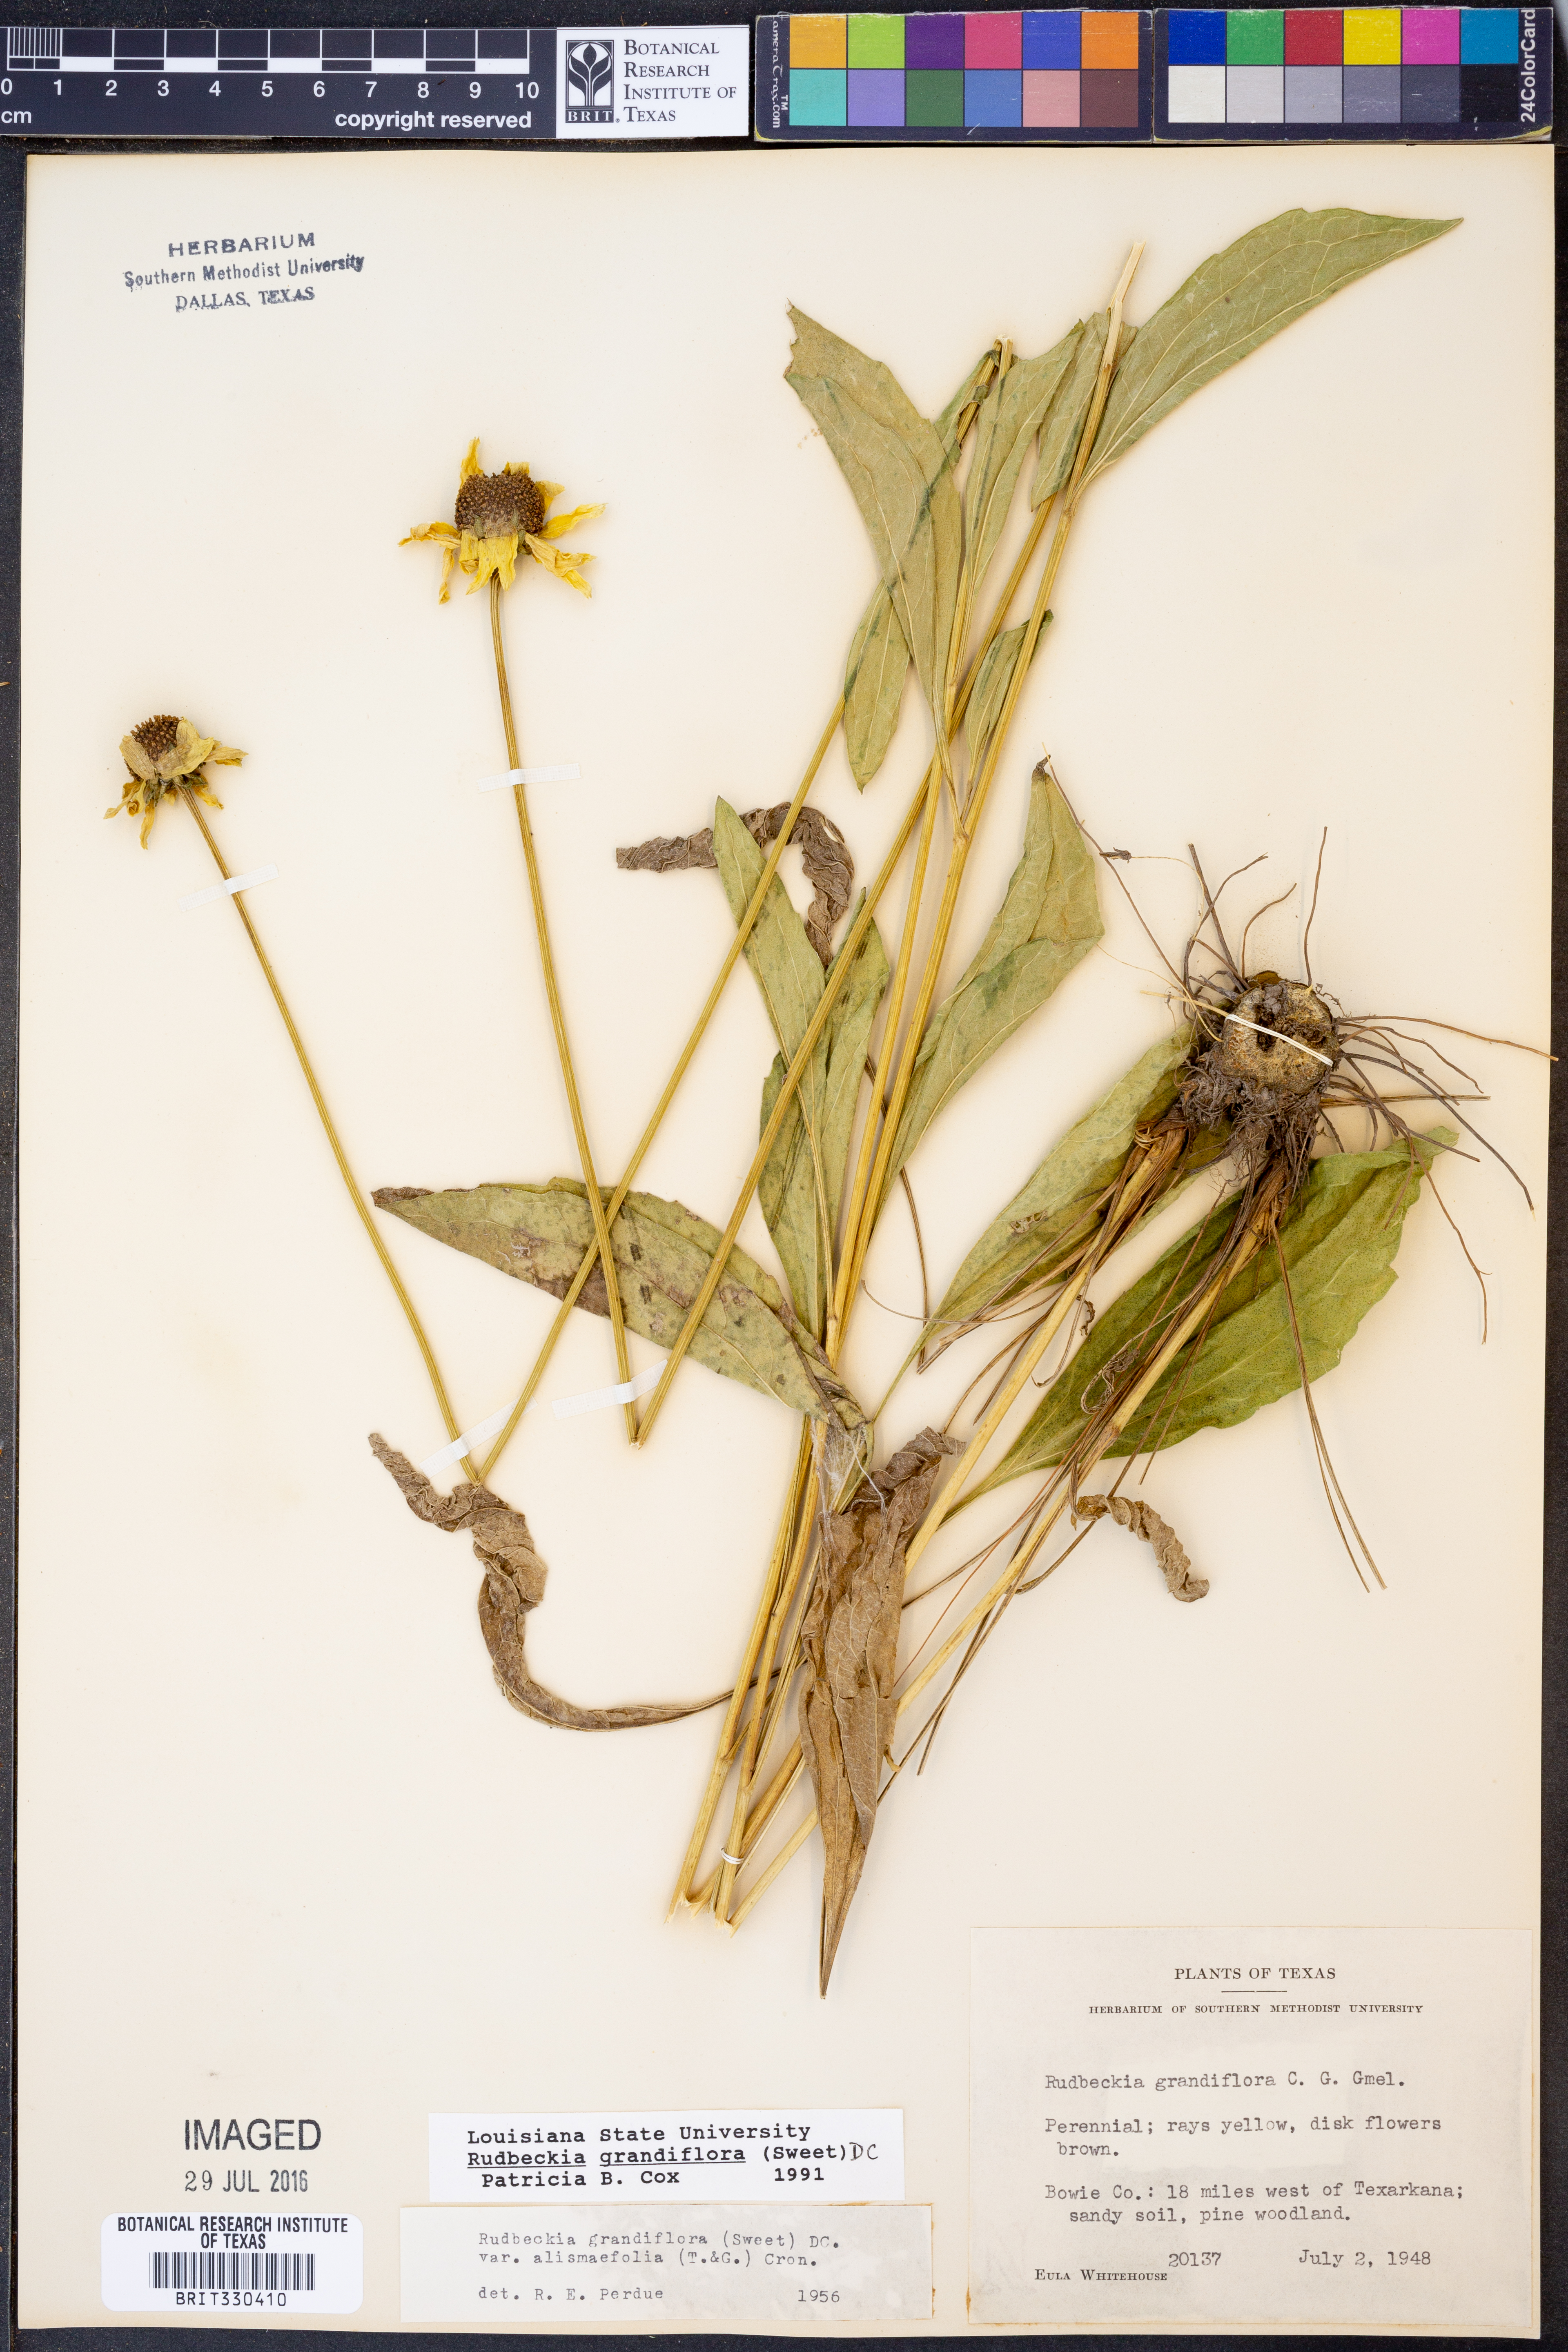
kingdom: Plantae
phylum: Tracheophyta
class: Magnoliopsida
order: Asterales
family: Asteraceae
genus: Rudbeckia
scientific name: Rudbeckia grandiflora
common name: Large-flowered coneflower
